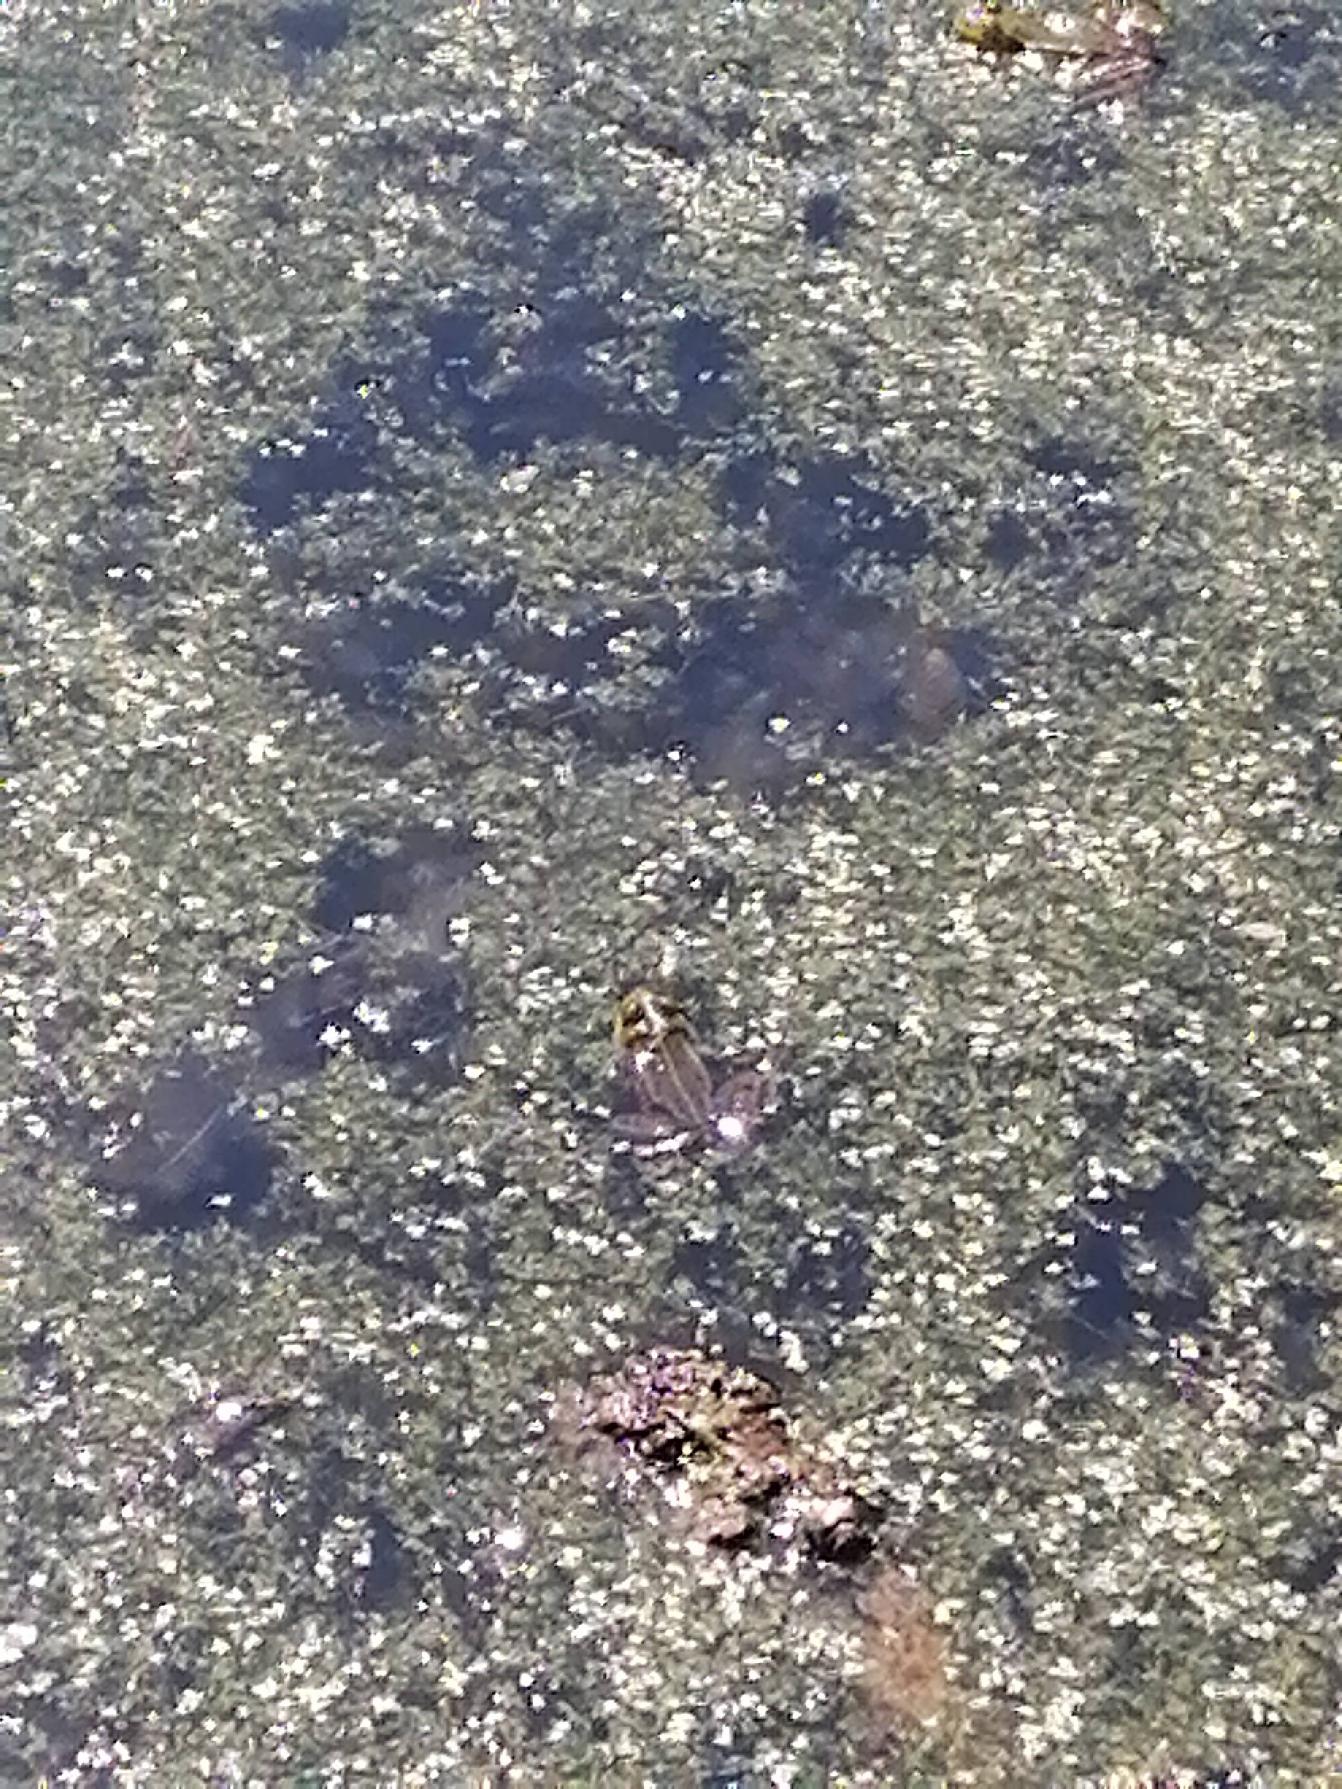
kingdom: Animalia
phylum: Chordata
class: Amphibia
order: Anura
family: Ranidae
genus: Pelophylax
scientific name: Pelophylax lessonae
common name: Grøn frø
